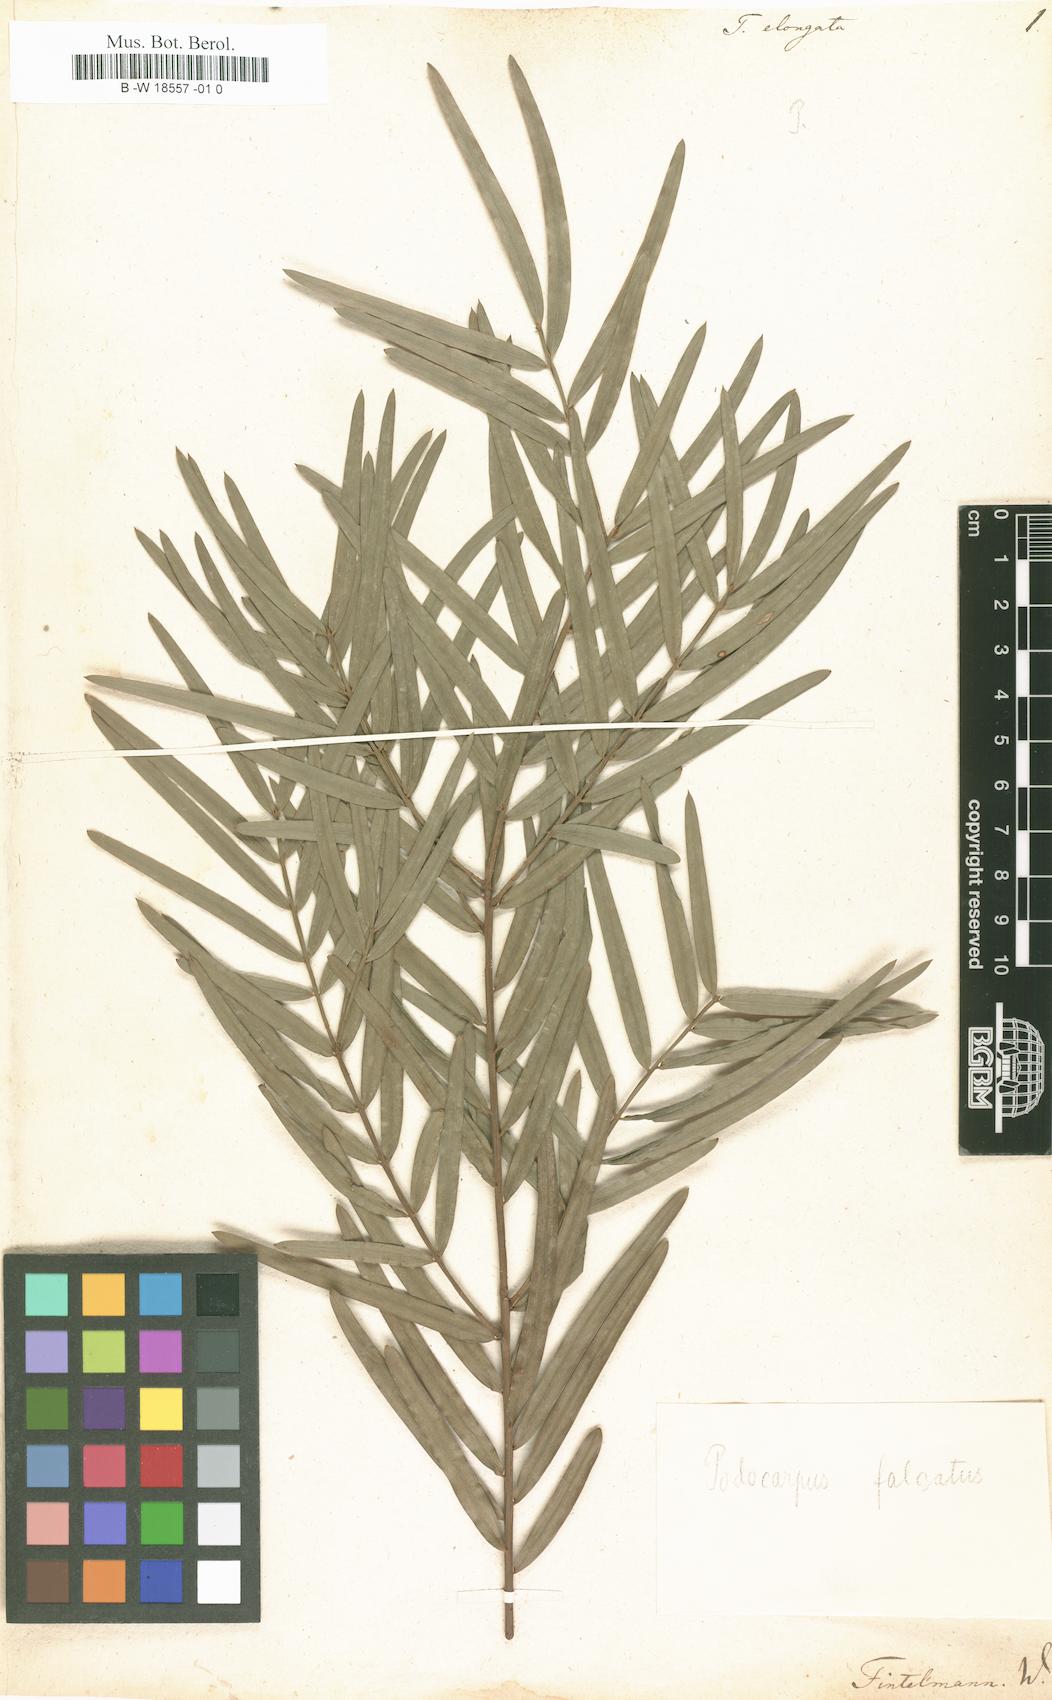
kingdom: Plantae
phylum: Tracheophyta
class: Pinopsida
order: Pinales
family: Podocarpaceae
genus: Podocarpus
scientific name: Podocarpus elongatus
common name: Breede river yellowwood
